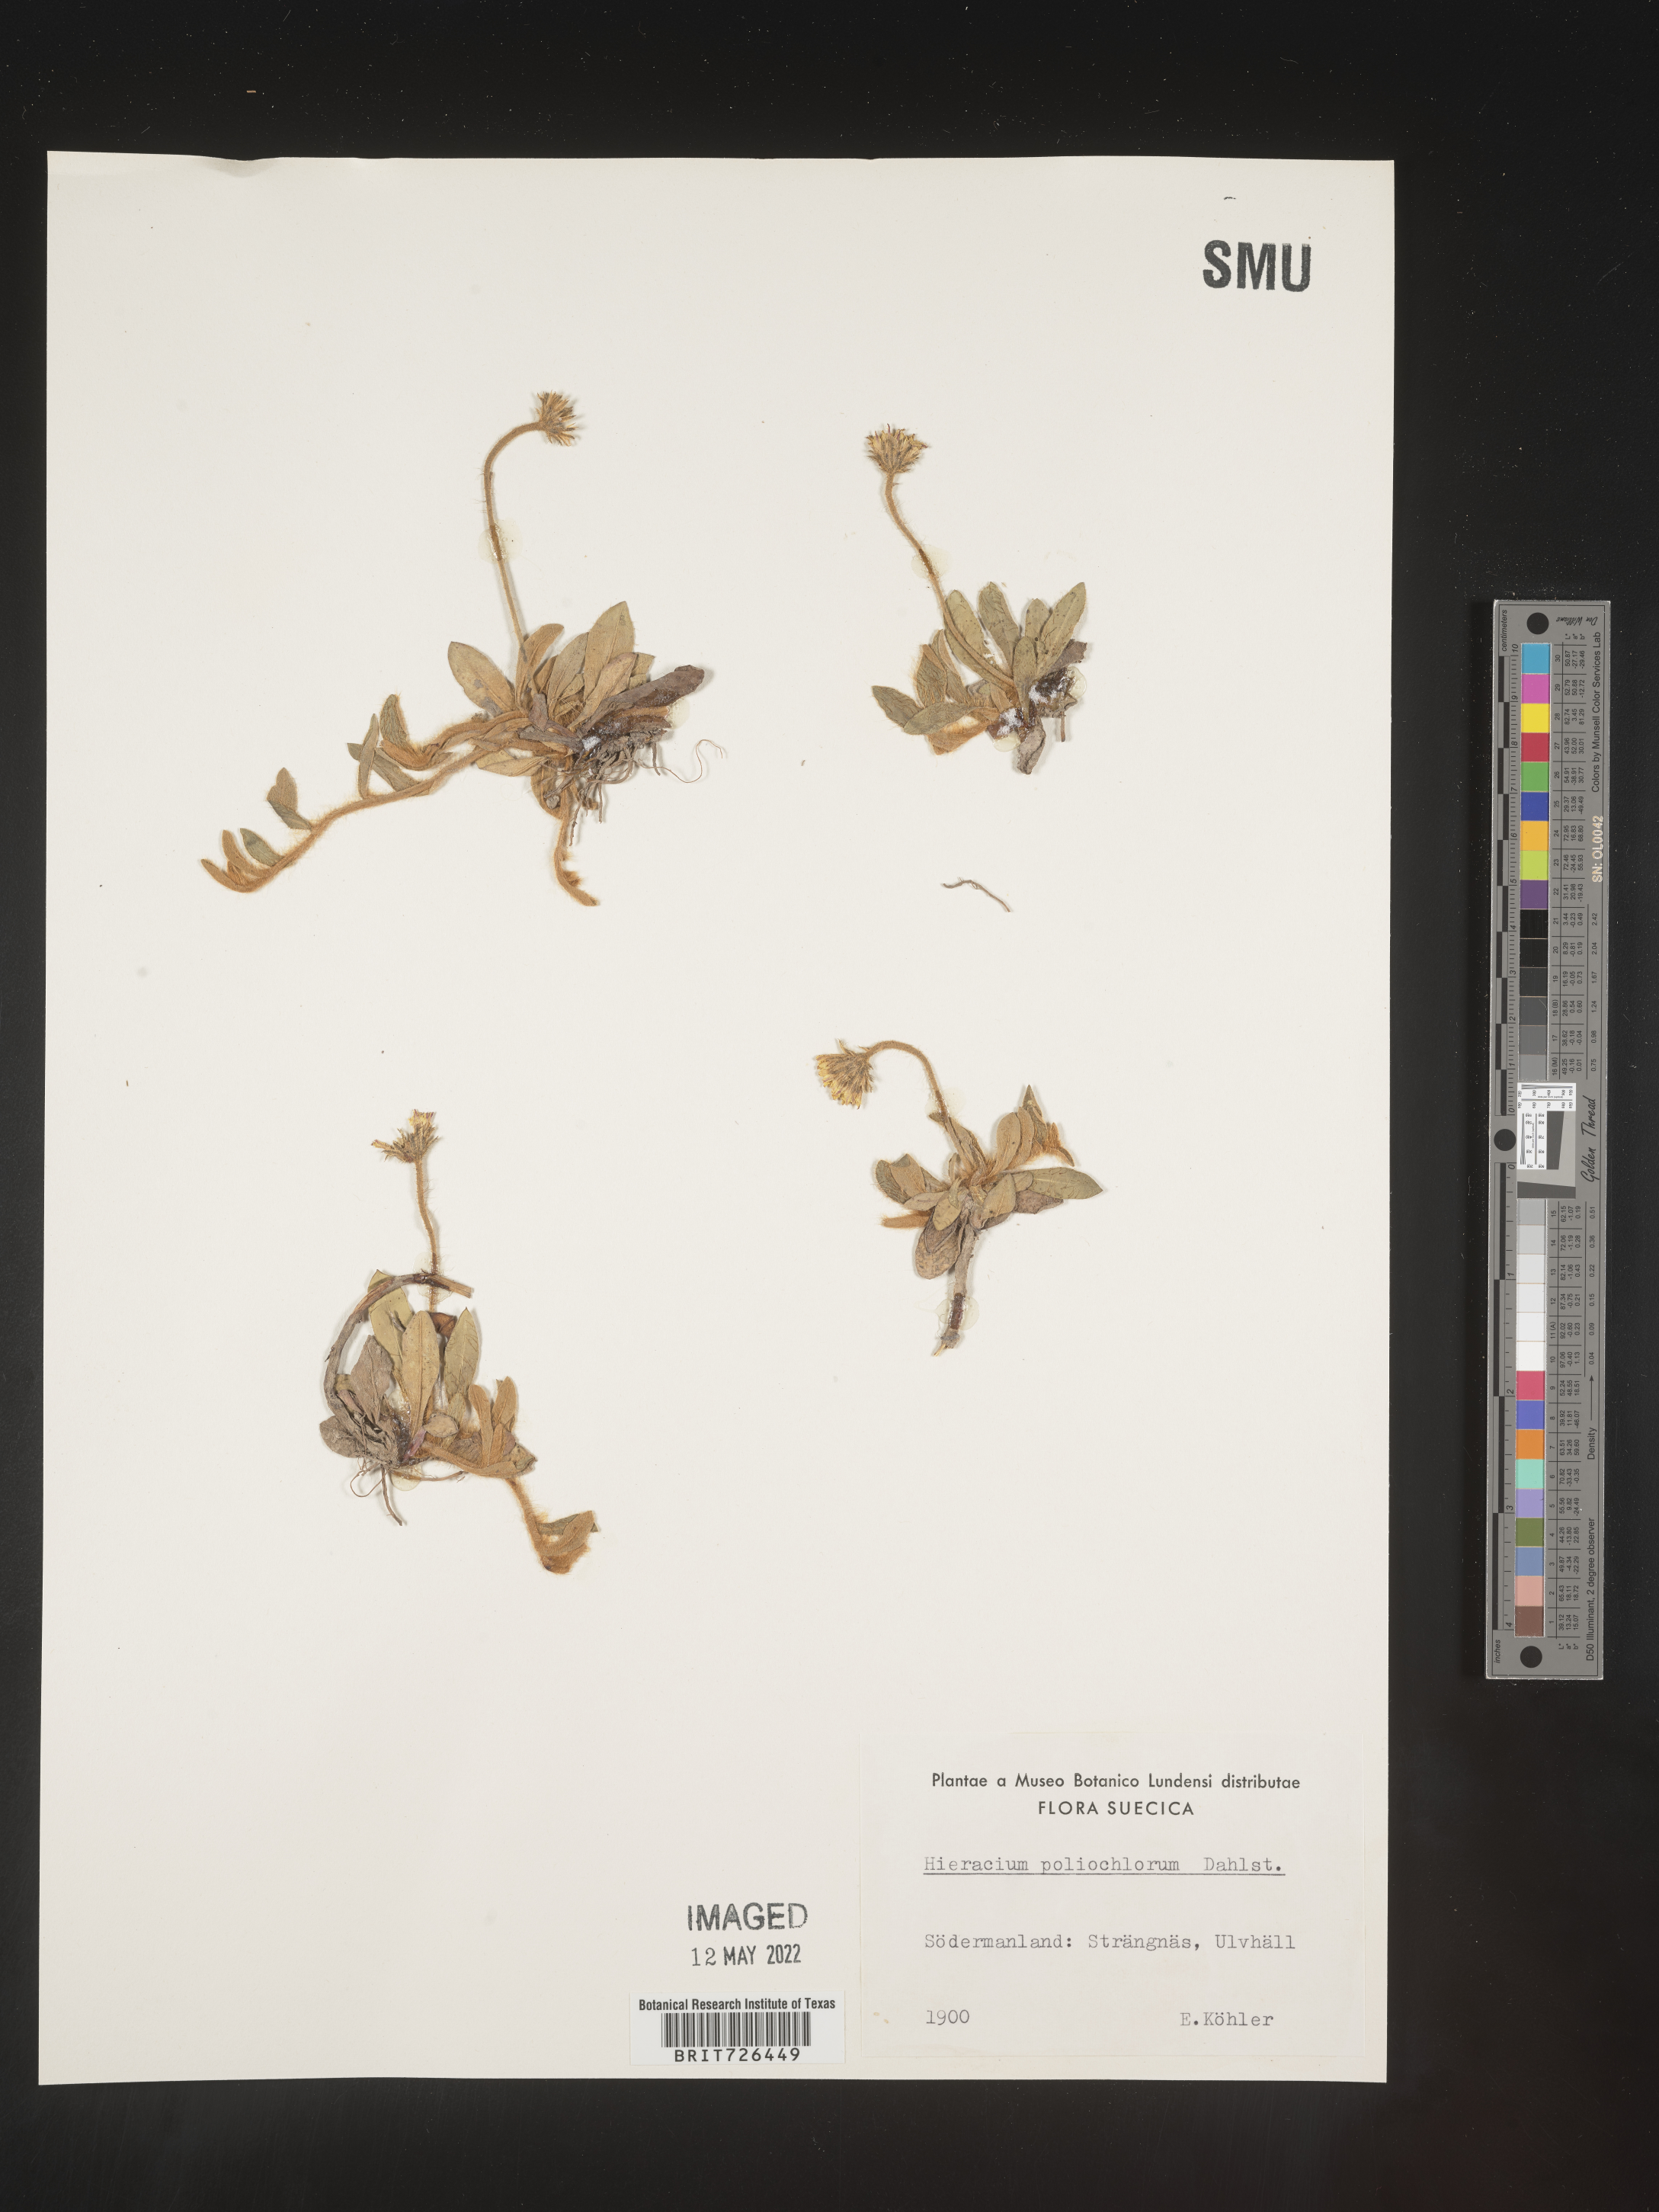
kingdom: Plantae
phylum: Tracheophyta
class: Magnoliopsida
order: Asterales
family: Asteraceae
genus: Hieracium
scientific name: Hieracium
